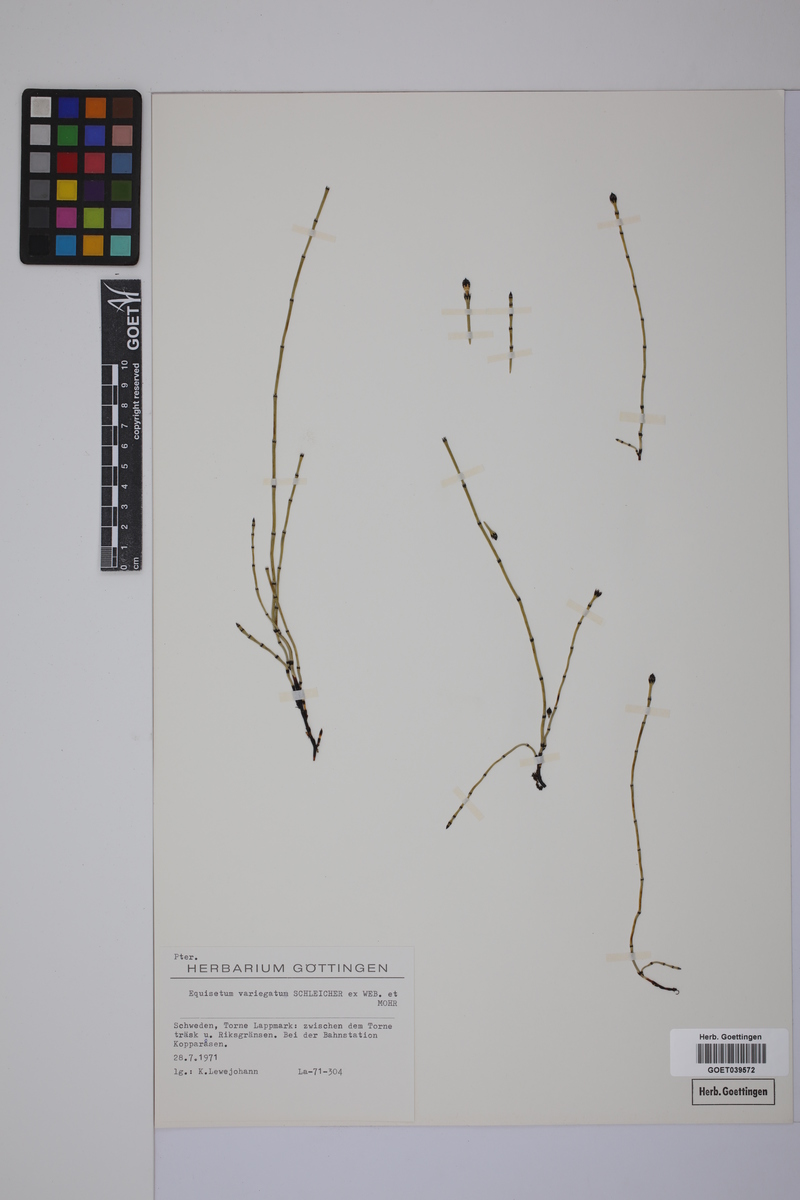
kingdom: Plantae
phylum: Tracheophyta
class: Polypodiopsida
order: Equisetales
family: Equisetaceae
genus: Equisetum
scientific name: Equisetum variegatum
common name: Variegated horsetail
